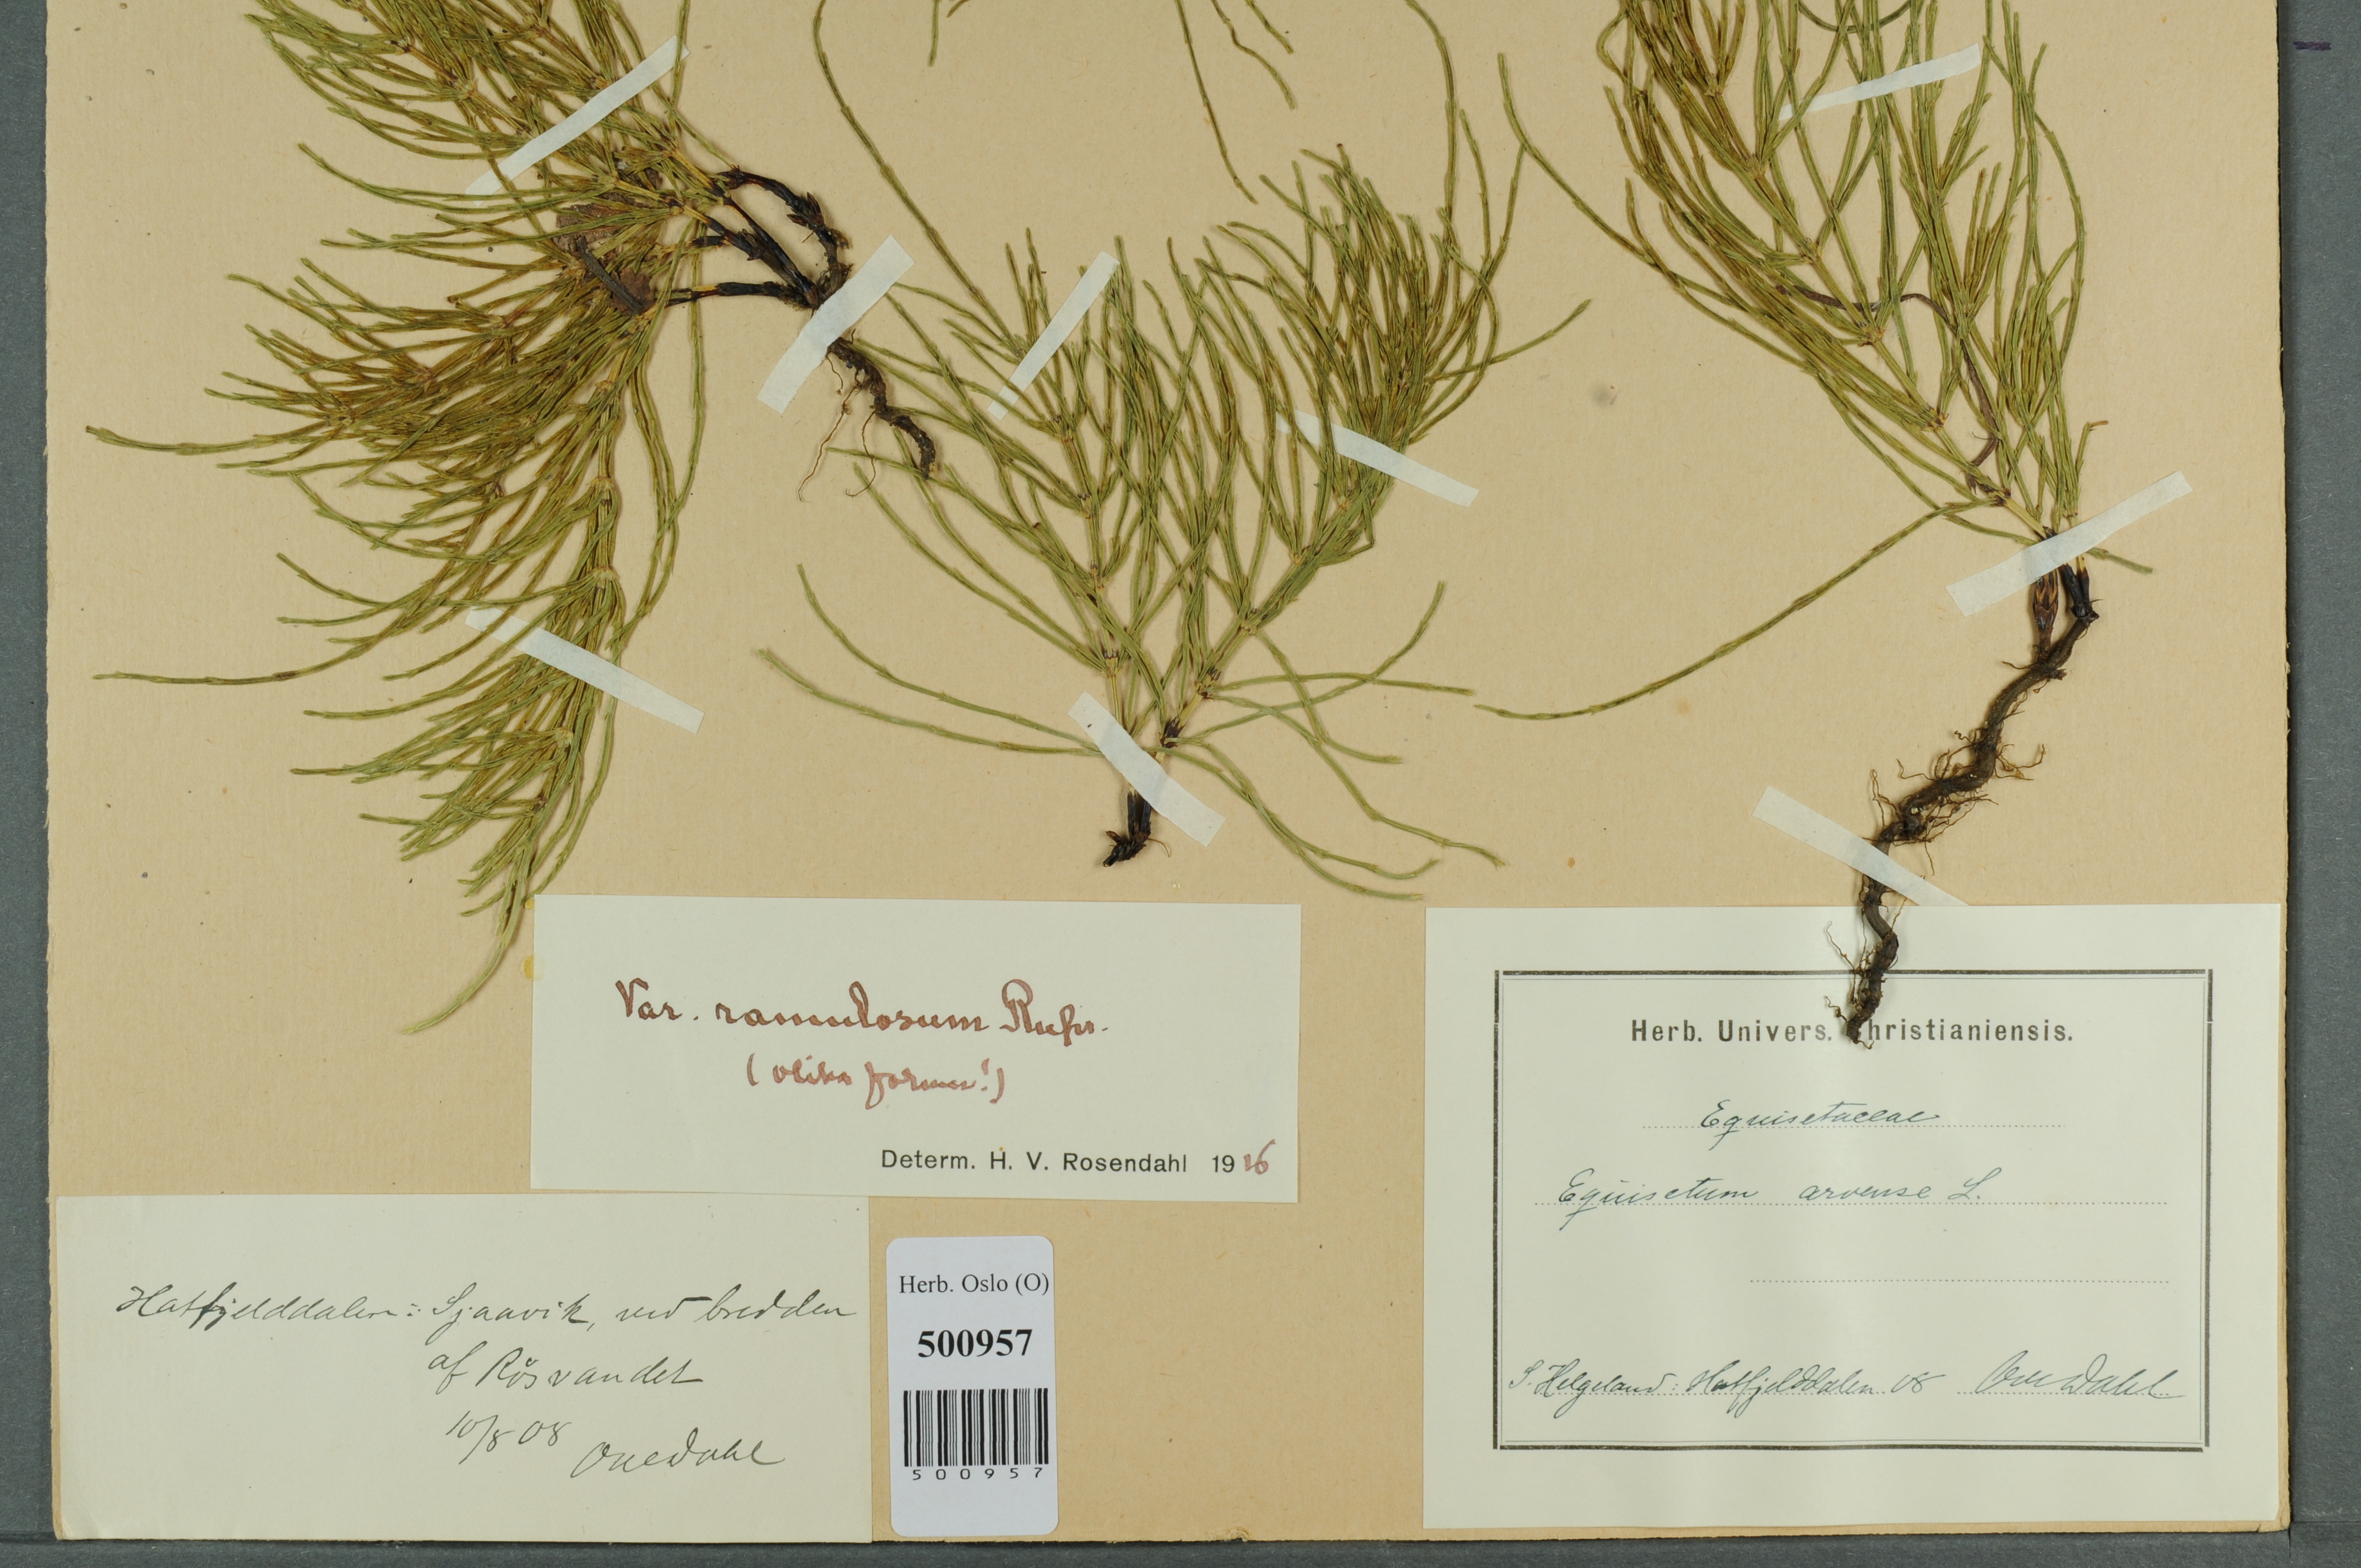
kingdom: Plantae
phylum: Tracheophyta
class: Polypodiopsida
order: Equisetales
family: Equisetaceae
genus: Equisetum
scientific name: Equisetum arvense
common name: Field horsetail
